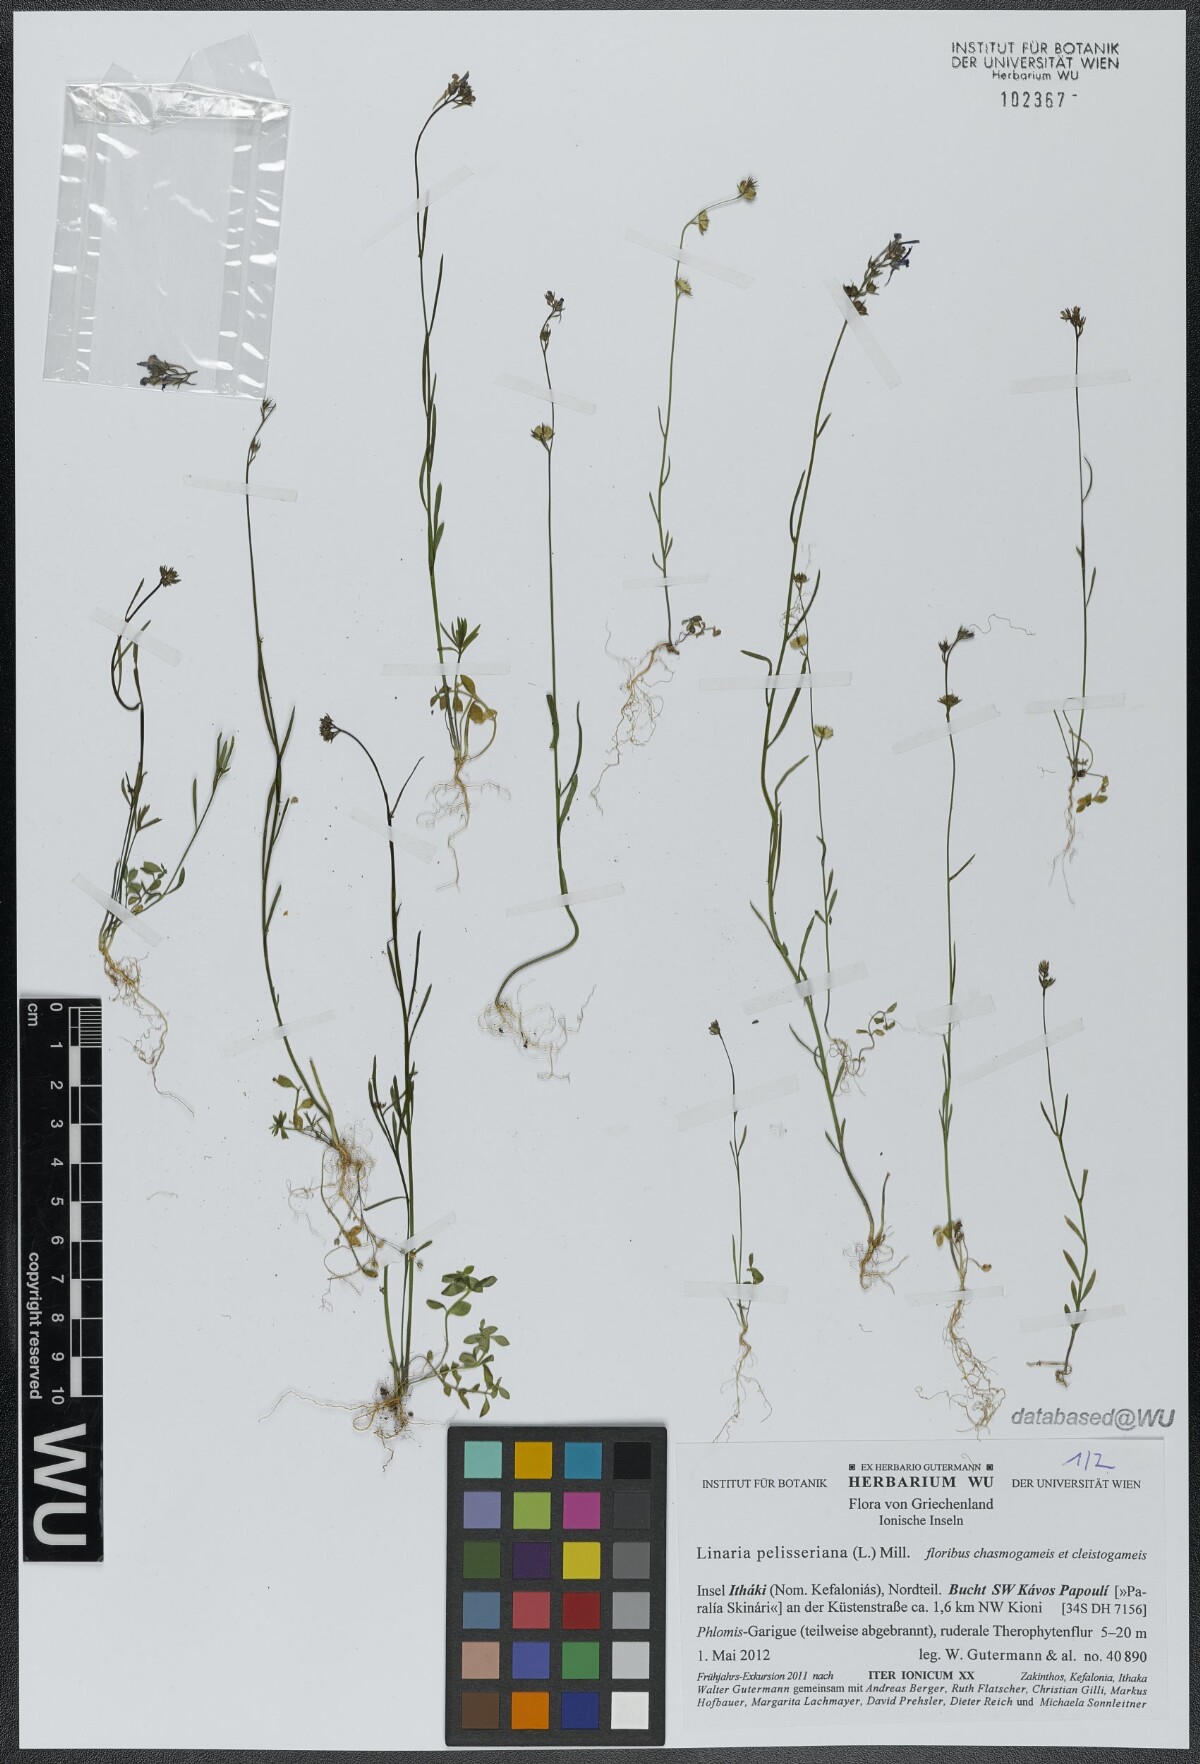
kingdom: Plantae
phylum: Tracheophyta
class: Magnoliopsida
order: Lamiales
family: Plantaginaceae
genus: Linaria
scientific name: Linaria pelisseriana
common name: Jersey toadflax
